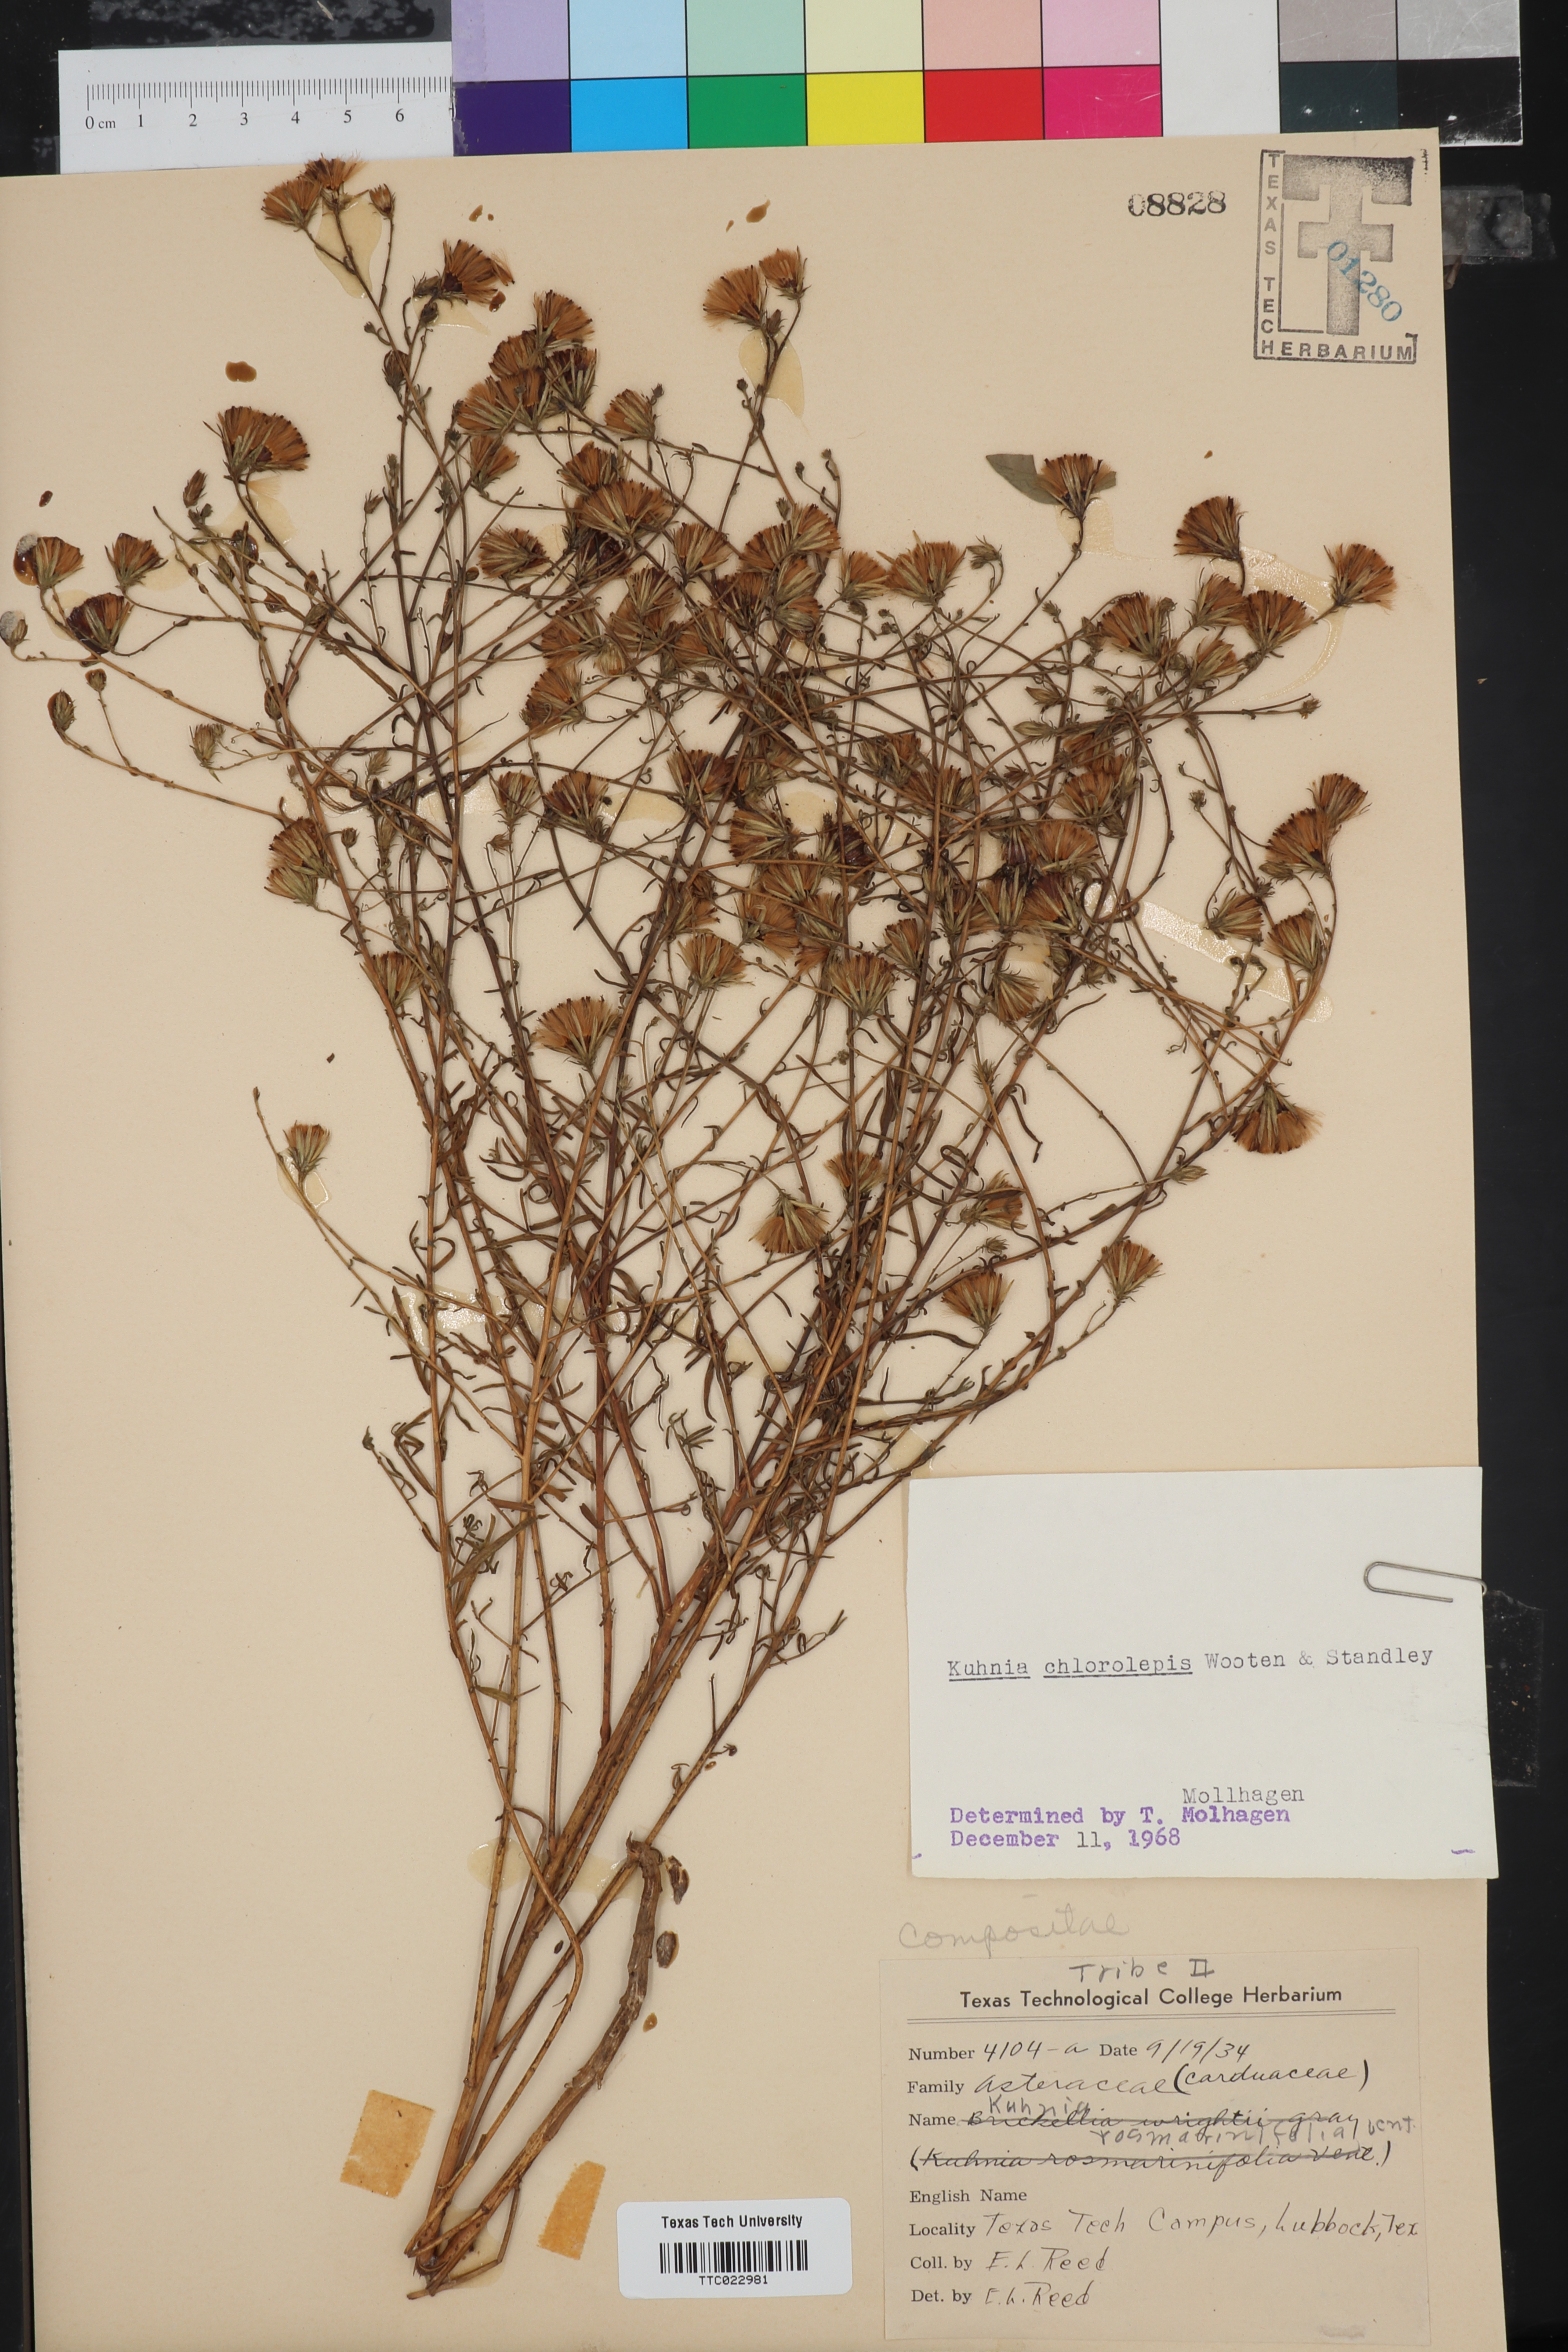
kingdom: Plantae
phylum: Tracheophyta
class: Magnoliopsida
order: Asterales
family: Asteraceae
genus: Brickellia
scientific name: Brickellia leptophylla
